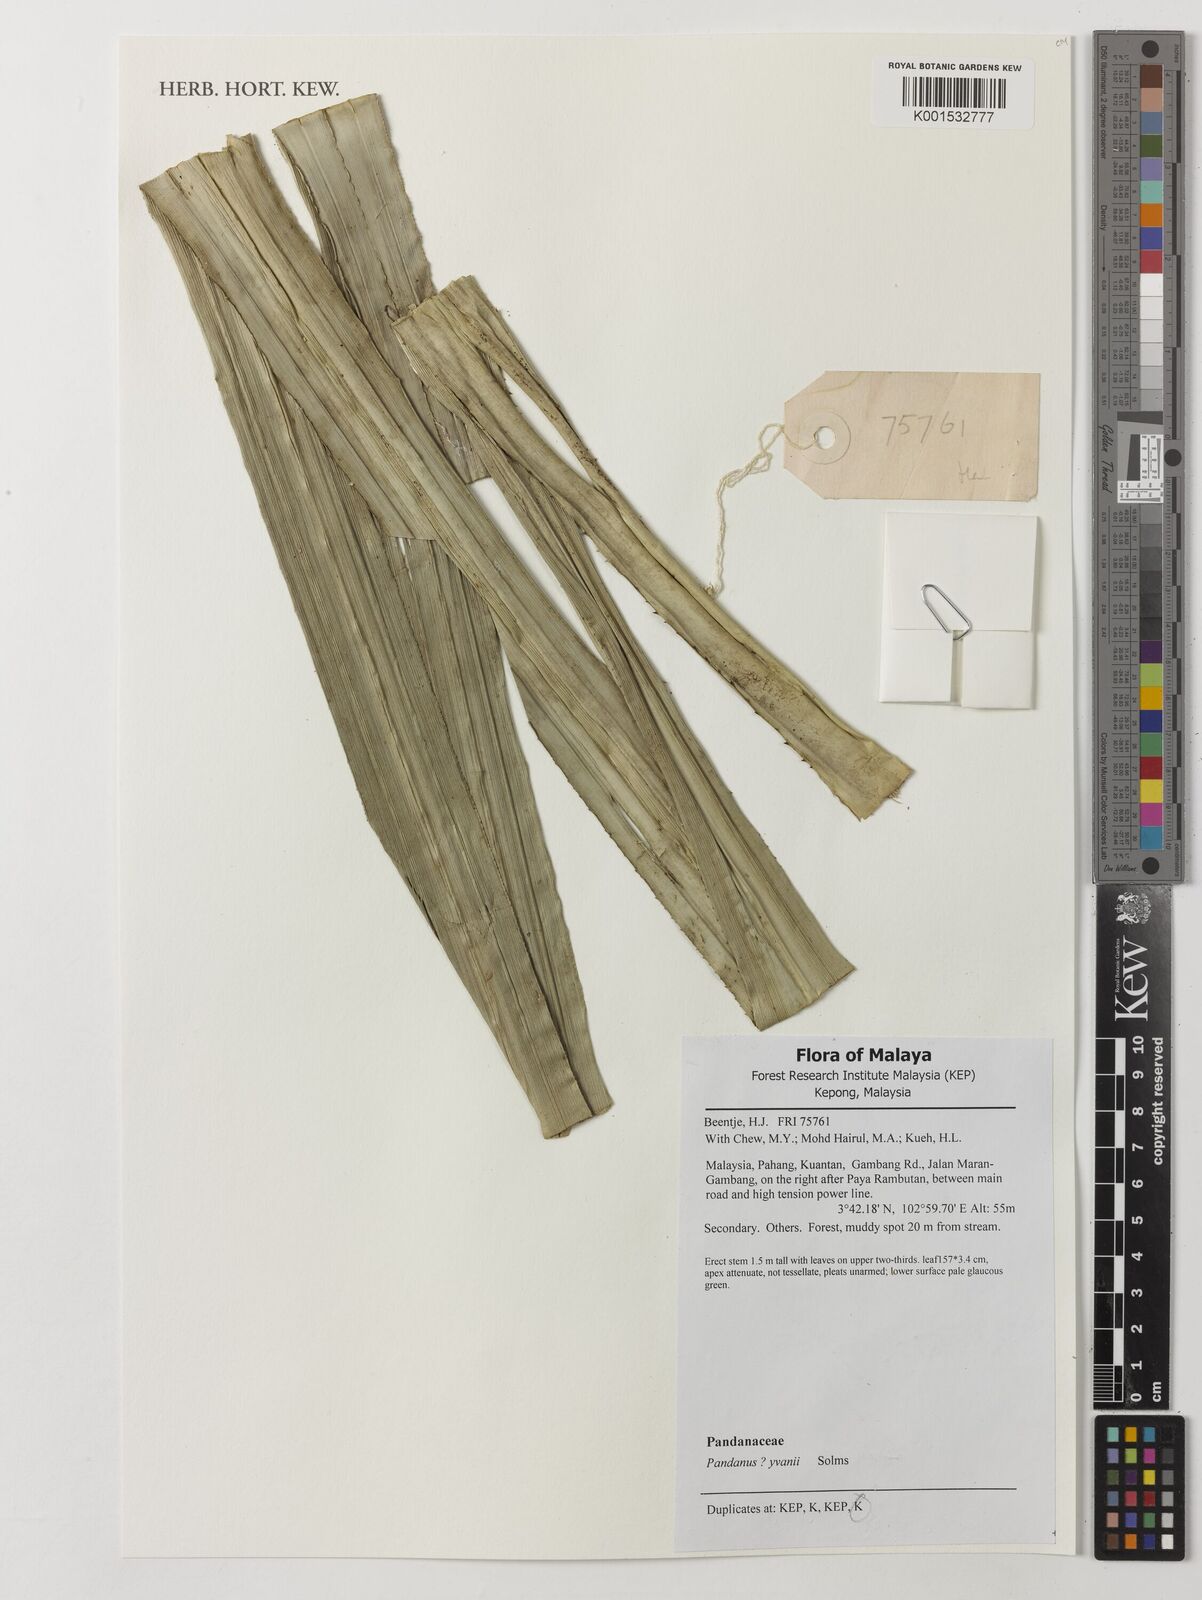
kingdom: Plantae
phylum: Tracheophyta
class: Liliopsida
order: Pandanales
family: Pandanaceae
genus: Pandanus
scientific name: Pandanus yvanii
